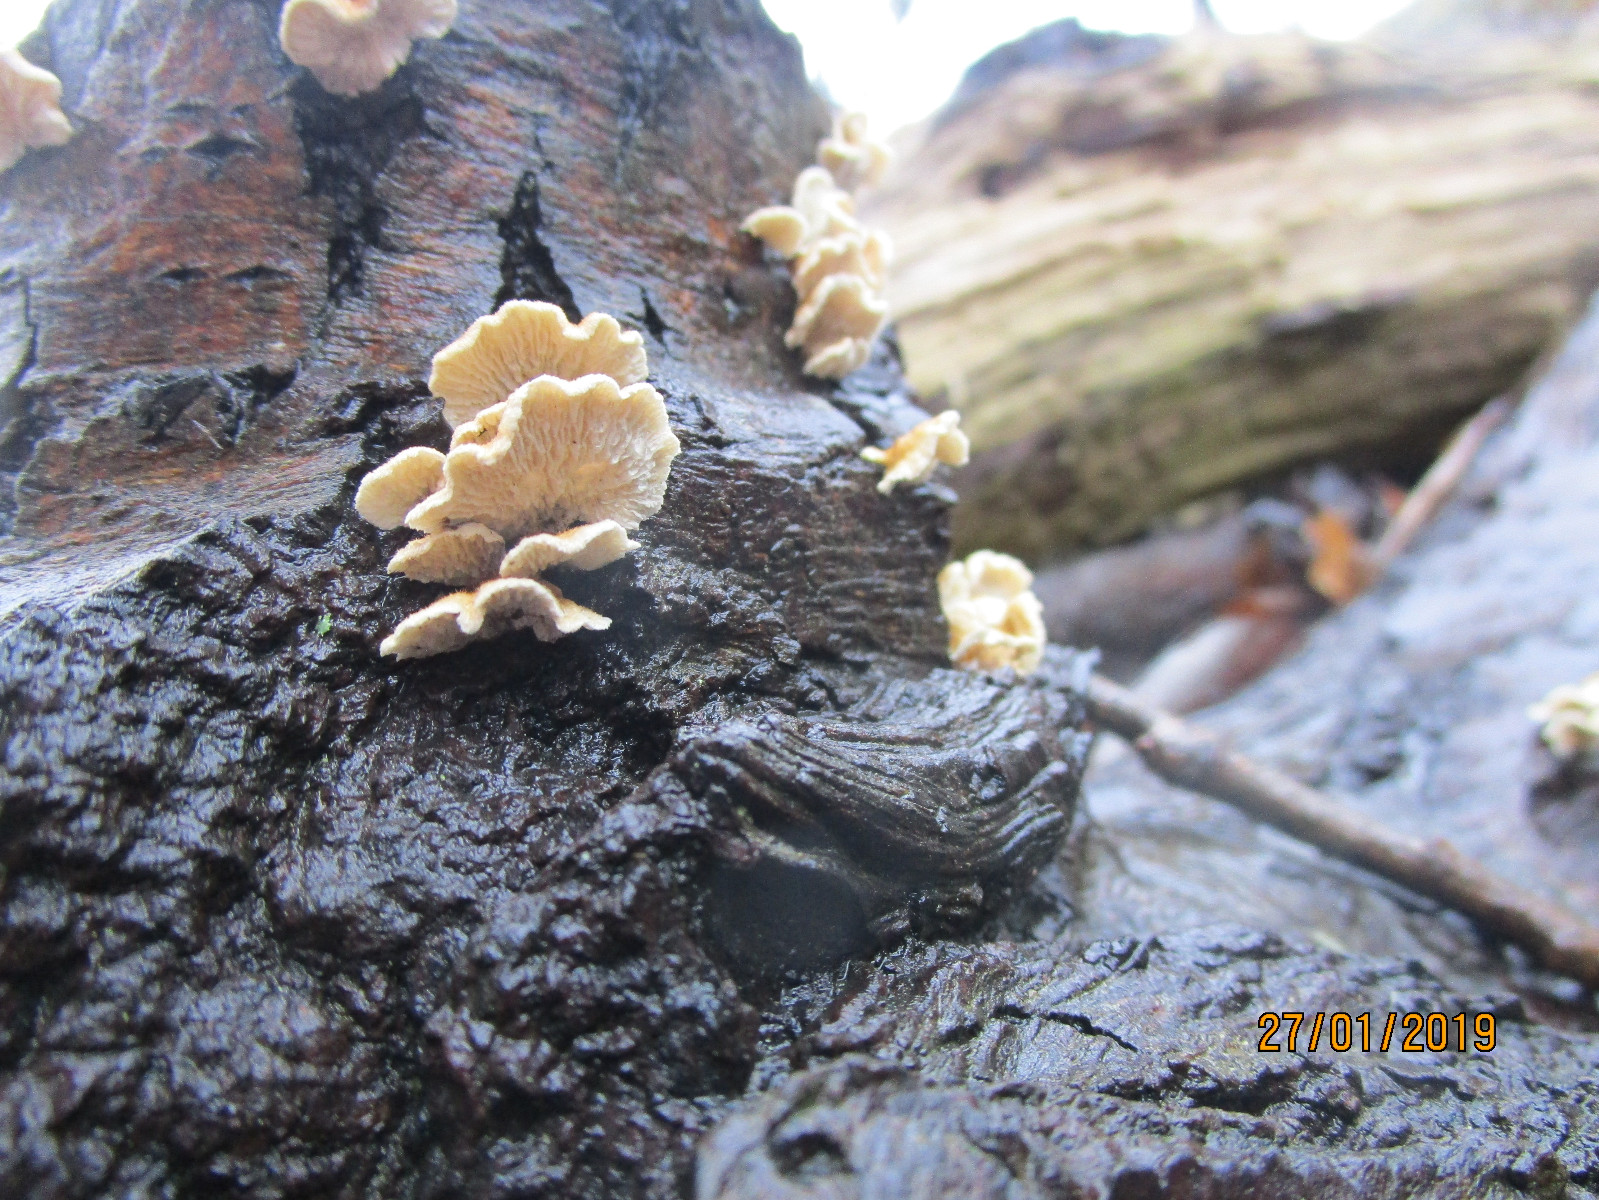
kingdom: Fungi
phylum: Basidiomycota
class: Agaricomycetes
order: Amylocorticiales
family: Amylocorticiaceae
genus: Plicaturopsis
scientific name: Plicaturopsis crispa
